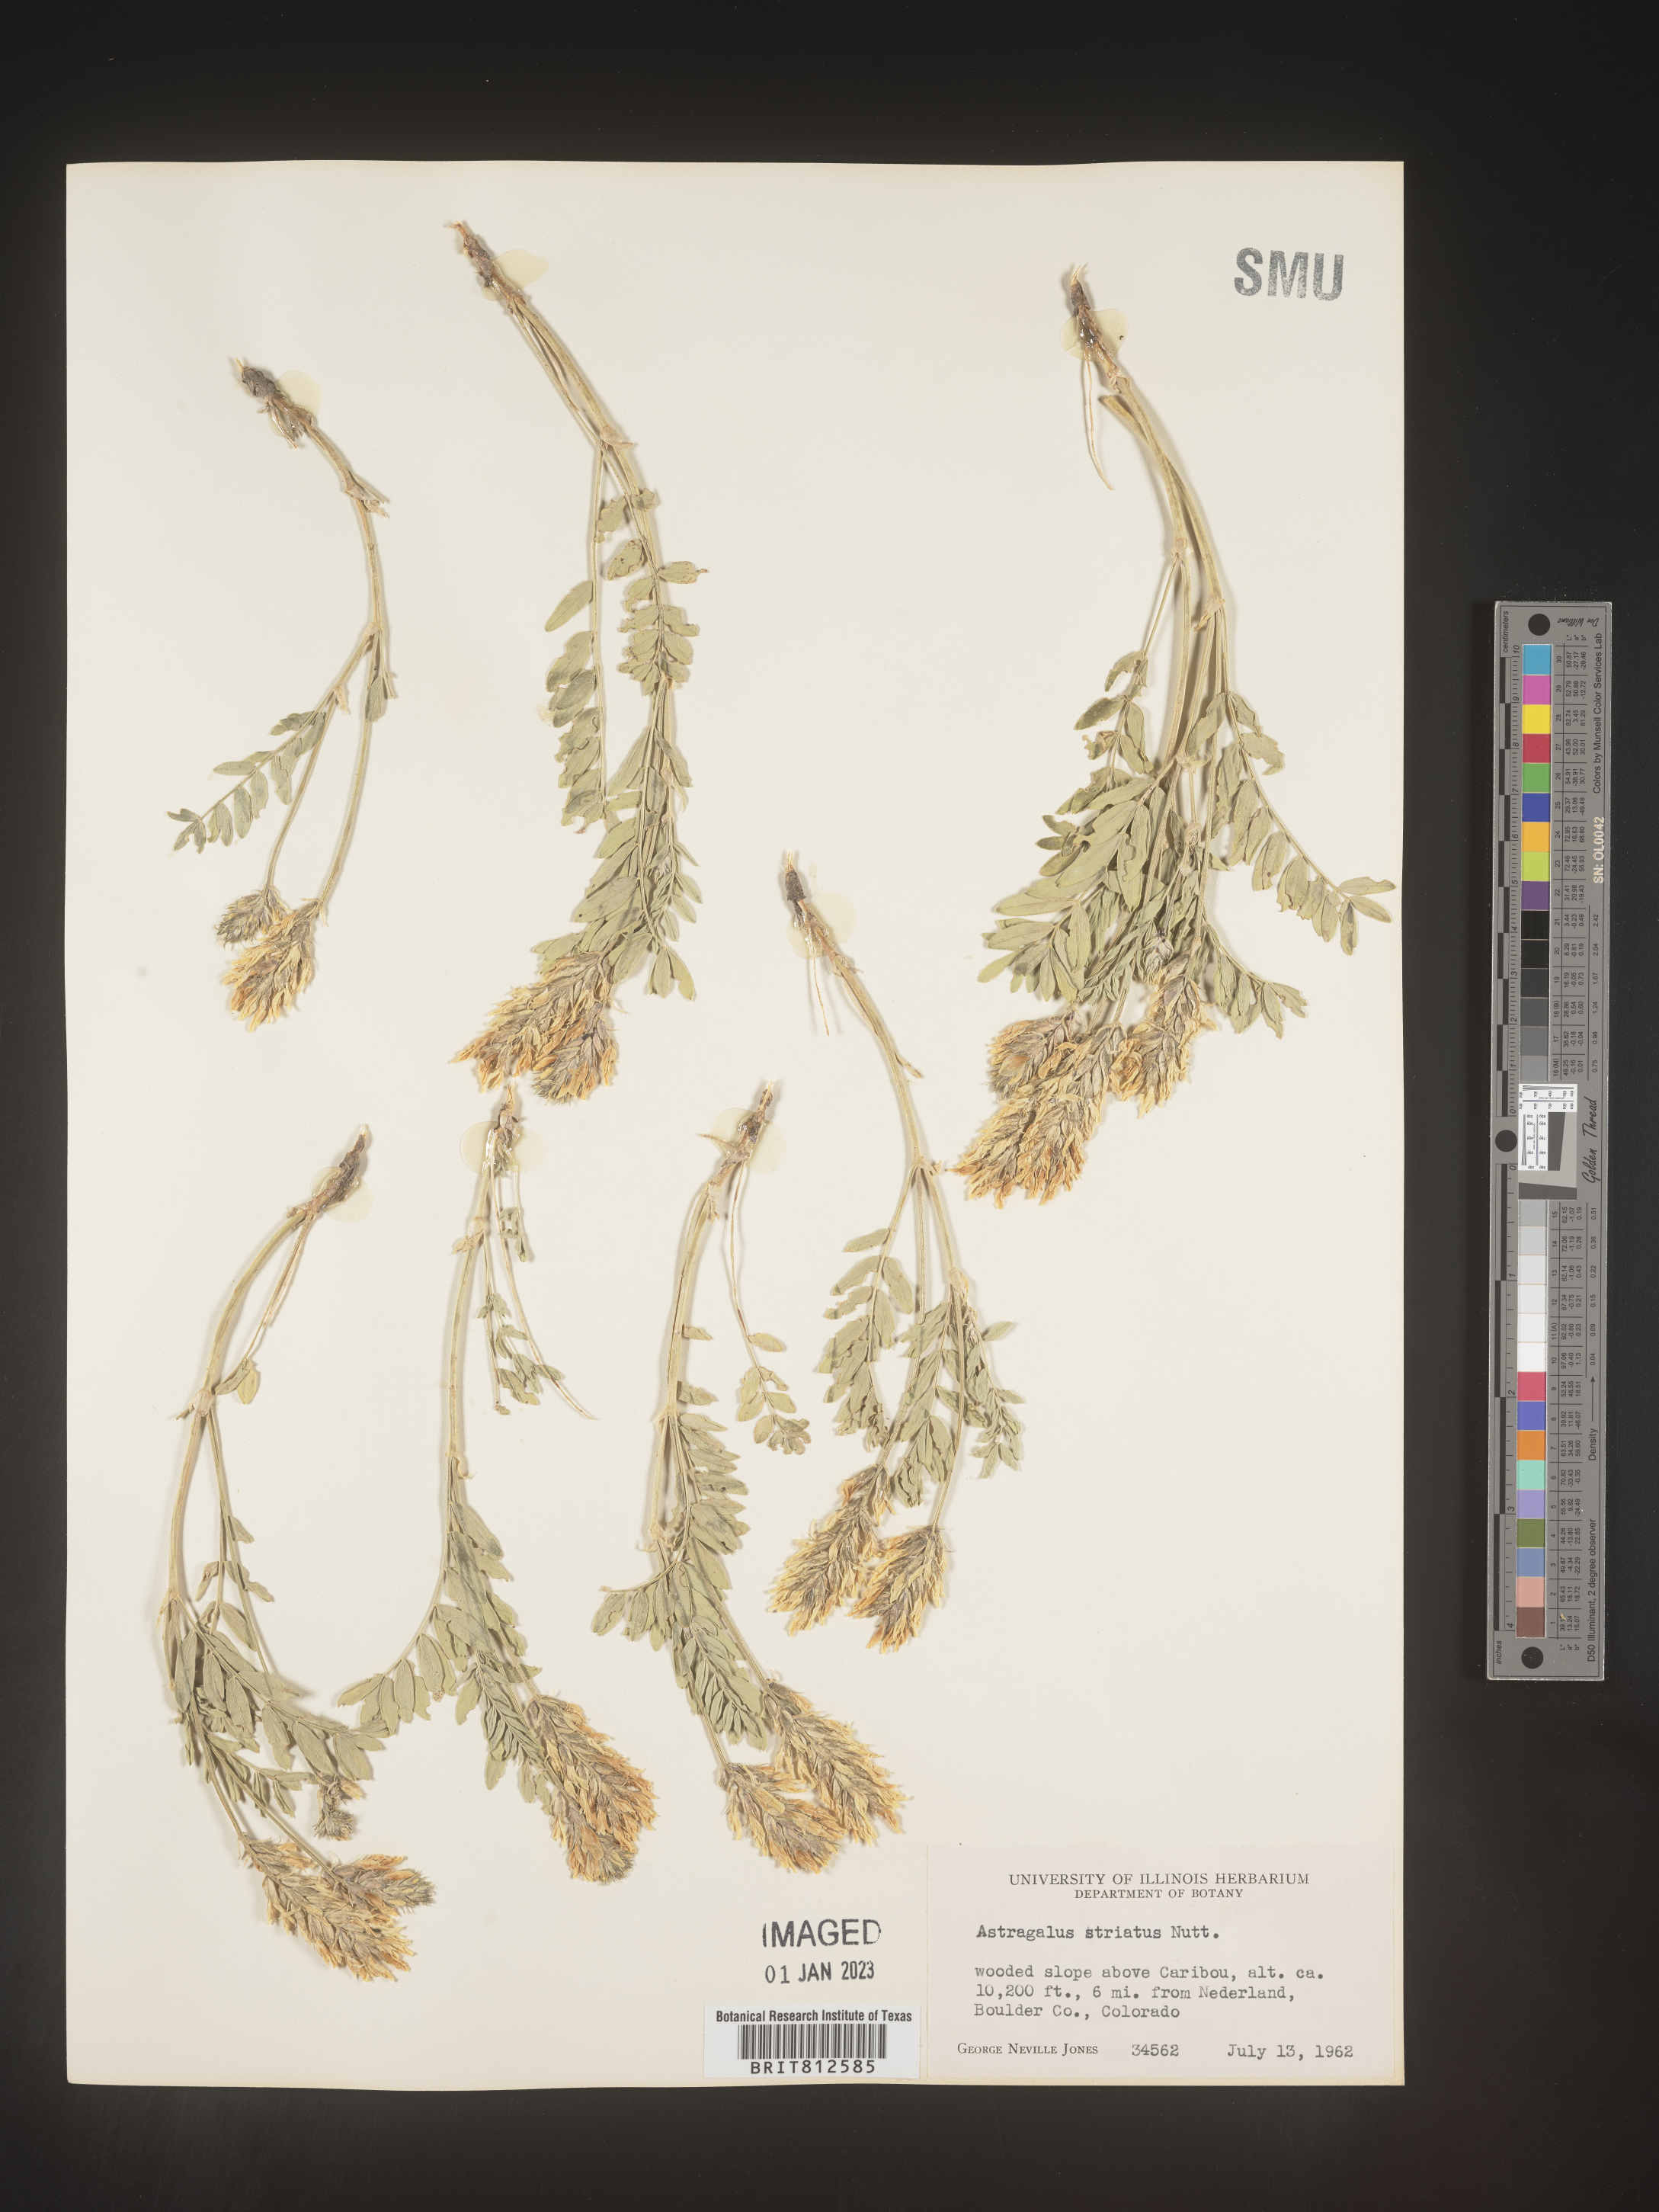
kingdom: Plantae
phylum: Tracheophyta
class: Magnoliopsida
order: Fabales
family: Fabaceae
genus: Astragalus
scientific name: Astragalus laxmannii
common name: Laxmann's milk-vetch
